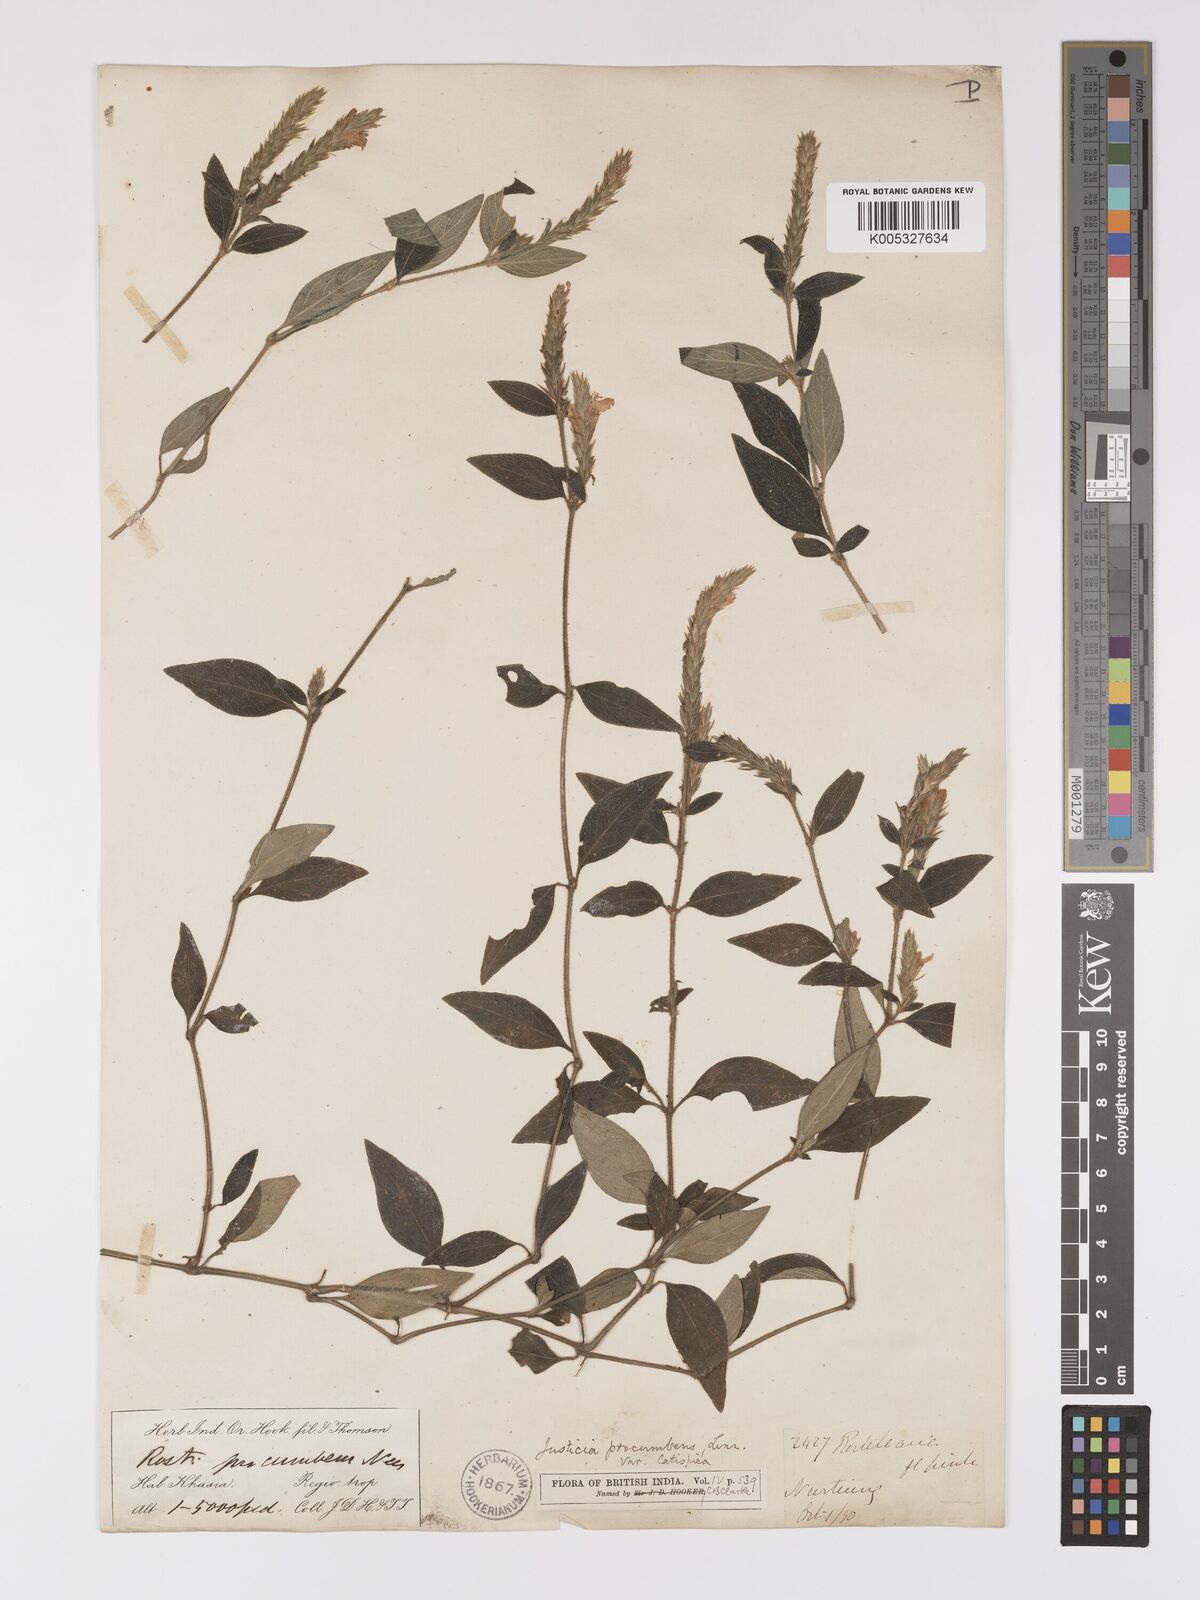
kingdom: Plantae
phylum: Tracheophyta
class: Magnoliopsida
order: Lamiales
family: Acanthaceae
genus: Rostellularia
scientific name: Rostellularia latispica
